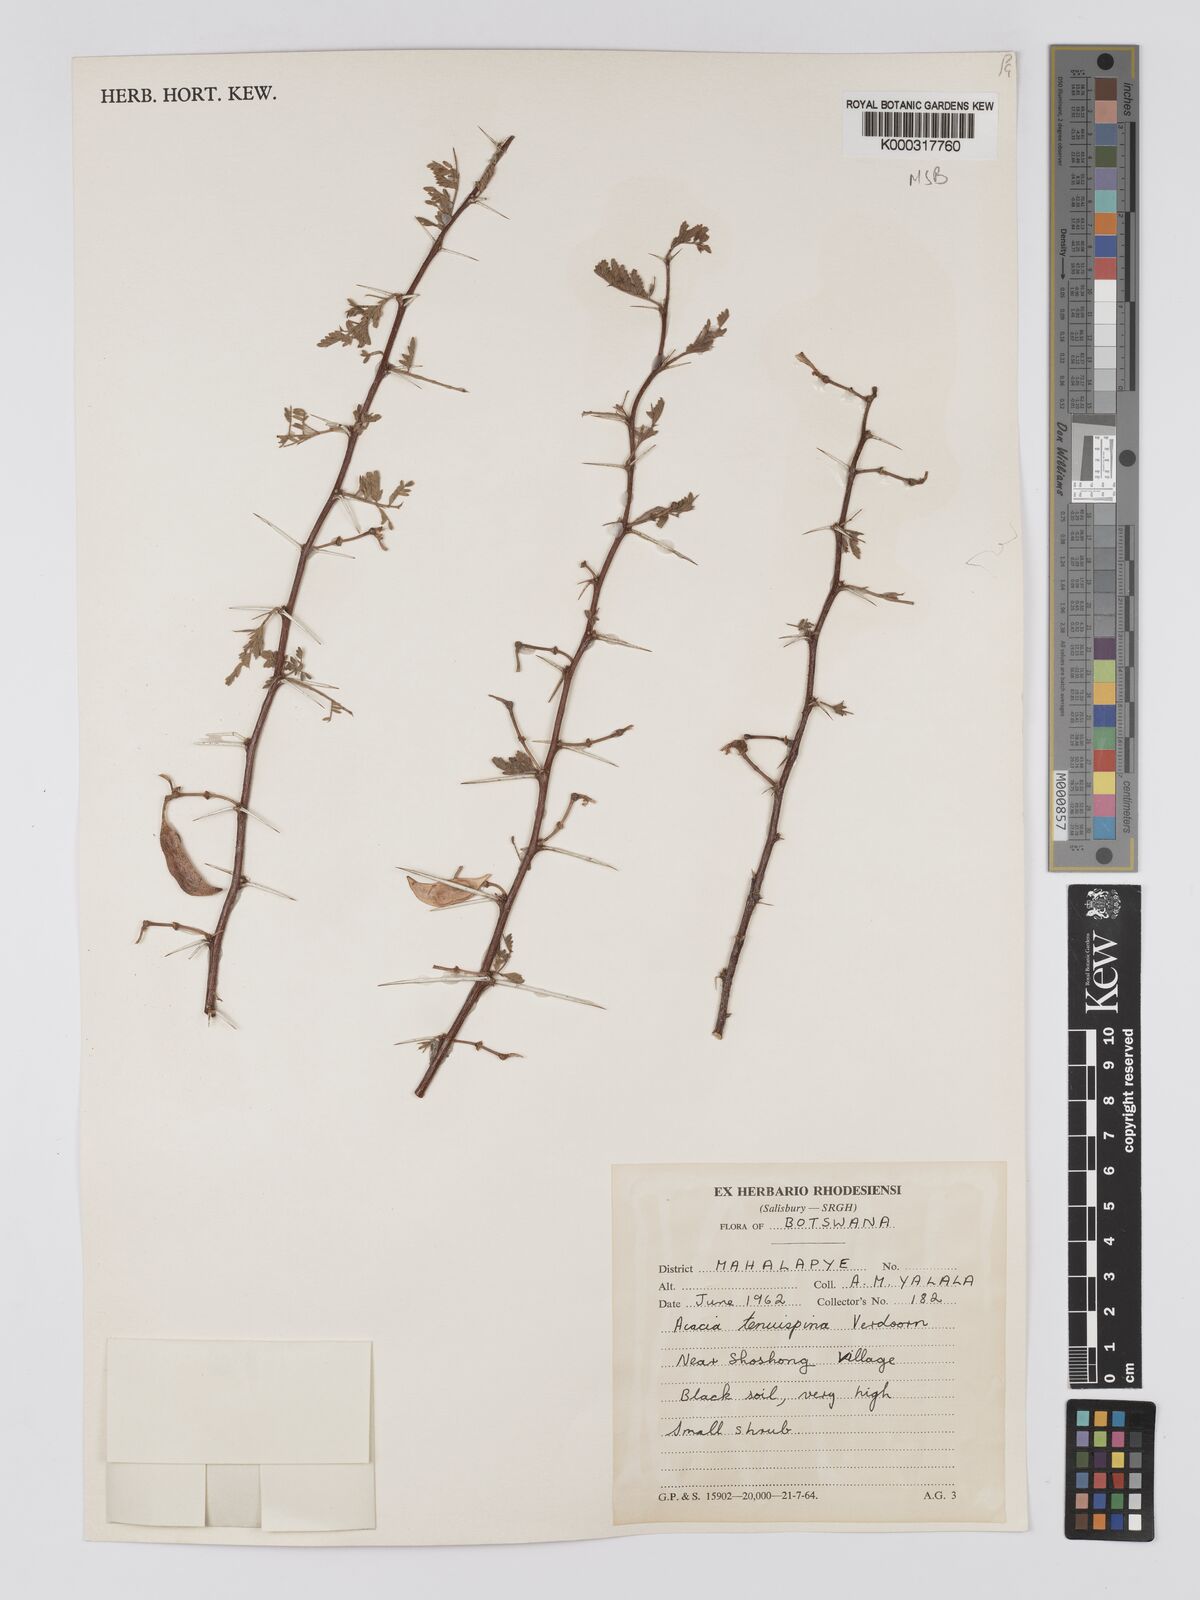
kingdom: Plantae
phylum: Tracheophyta
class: Magnoliopsida
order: Fabales
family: Fabaceae
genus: Vachellia
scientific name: Vachellia tenuispina
